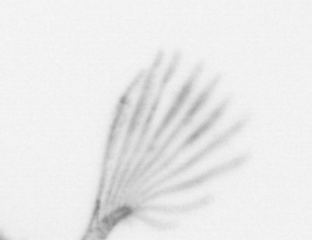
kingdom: Chromista
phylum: Ochrophyta
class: Bacillariophyceae
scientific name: Bacillariophyceae
